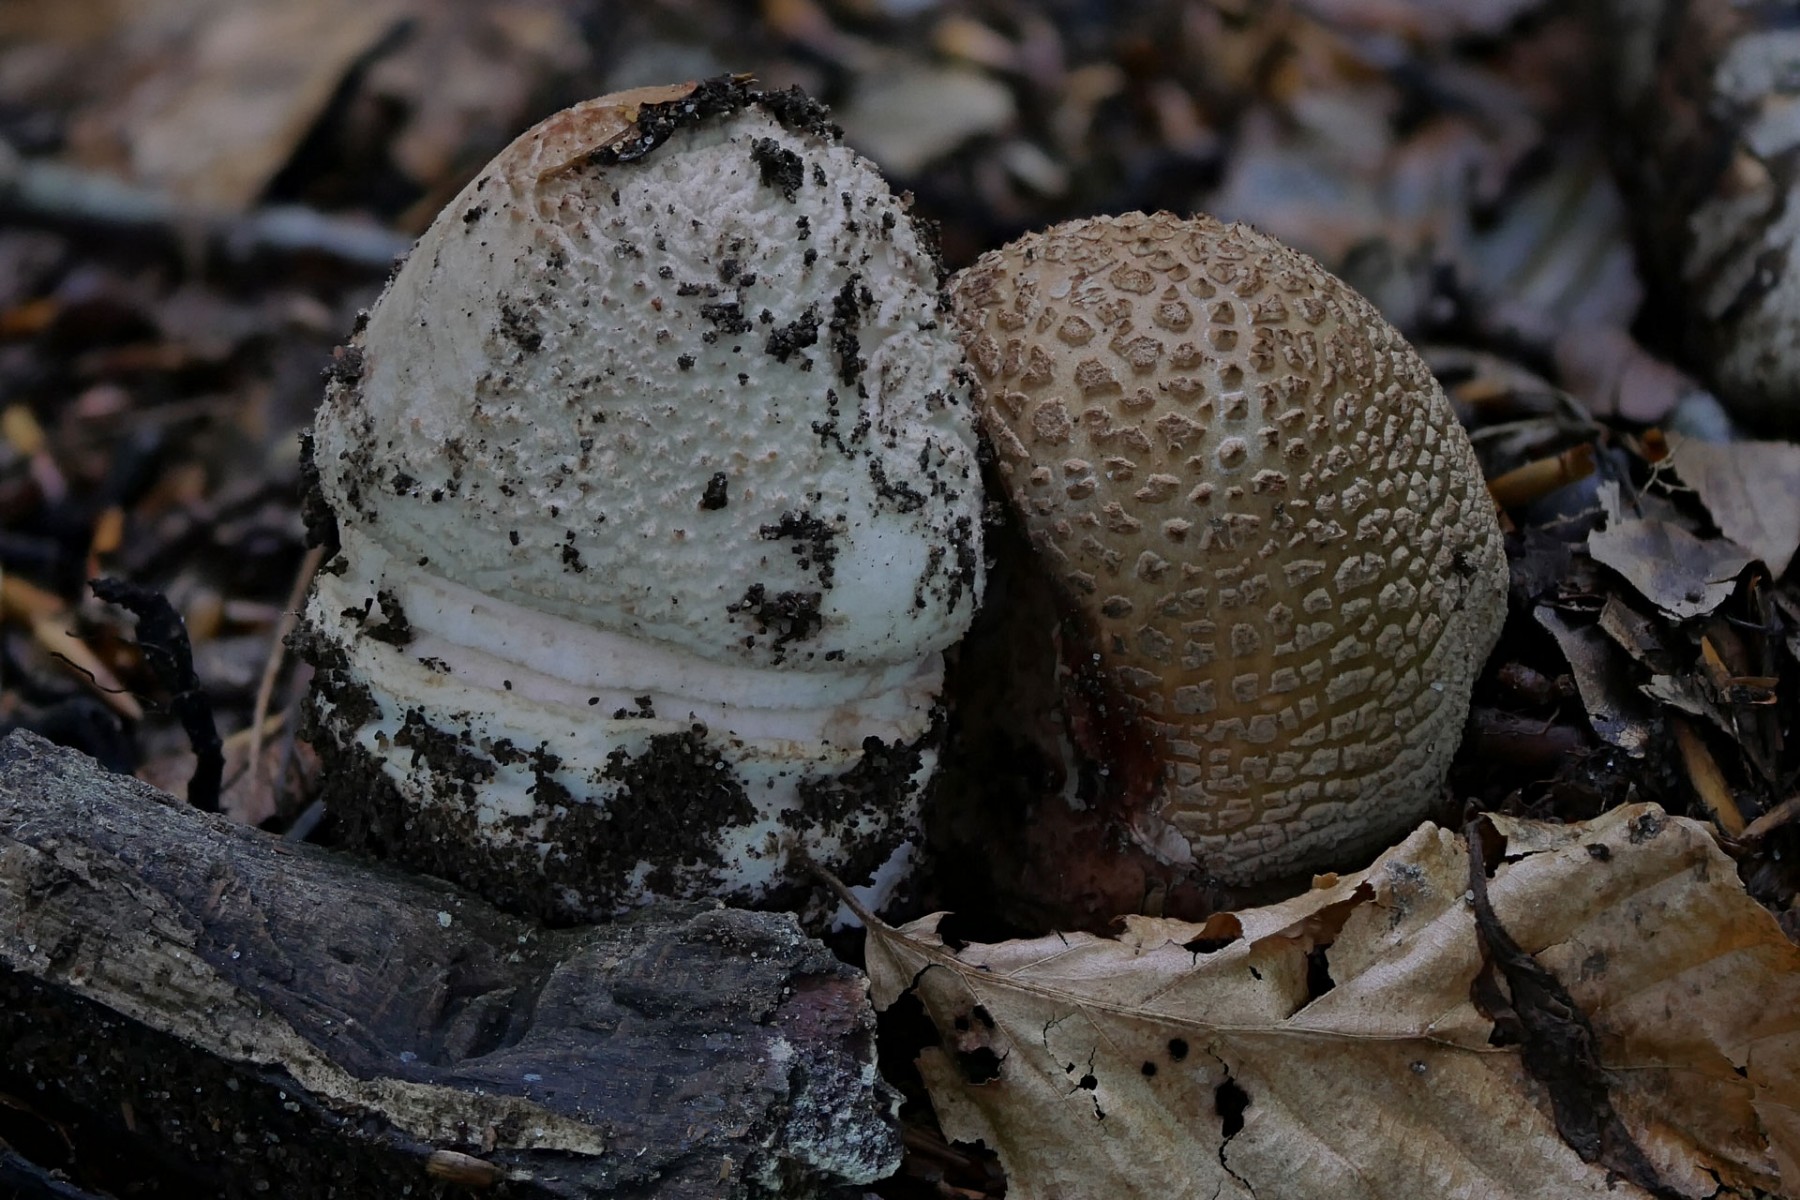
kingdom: Fungi
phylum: Basidiomycota
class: Agaricomycetes
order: Agaricales
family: Amanitaceae
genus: Amanita
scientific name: Amanita rubescens
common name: rødmende fluesvamp
